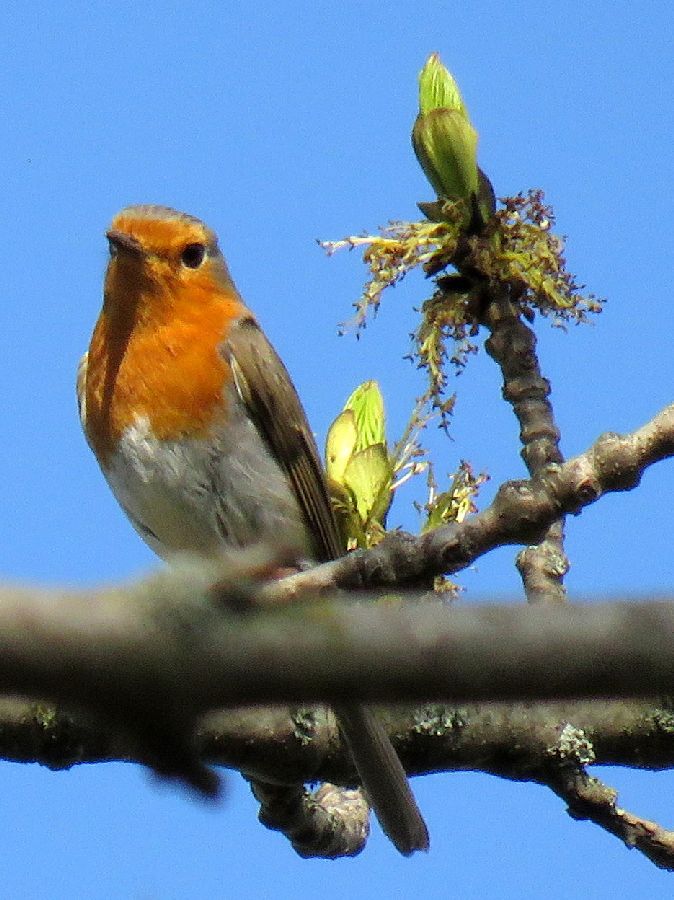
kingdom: Animalia
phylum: Chordata
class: Aves
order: Passeriformes
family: Muscicapidae
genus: Erithacus
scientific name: Erithacus rubecula
